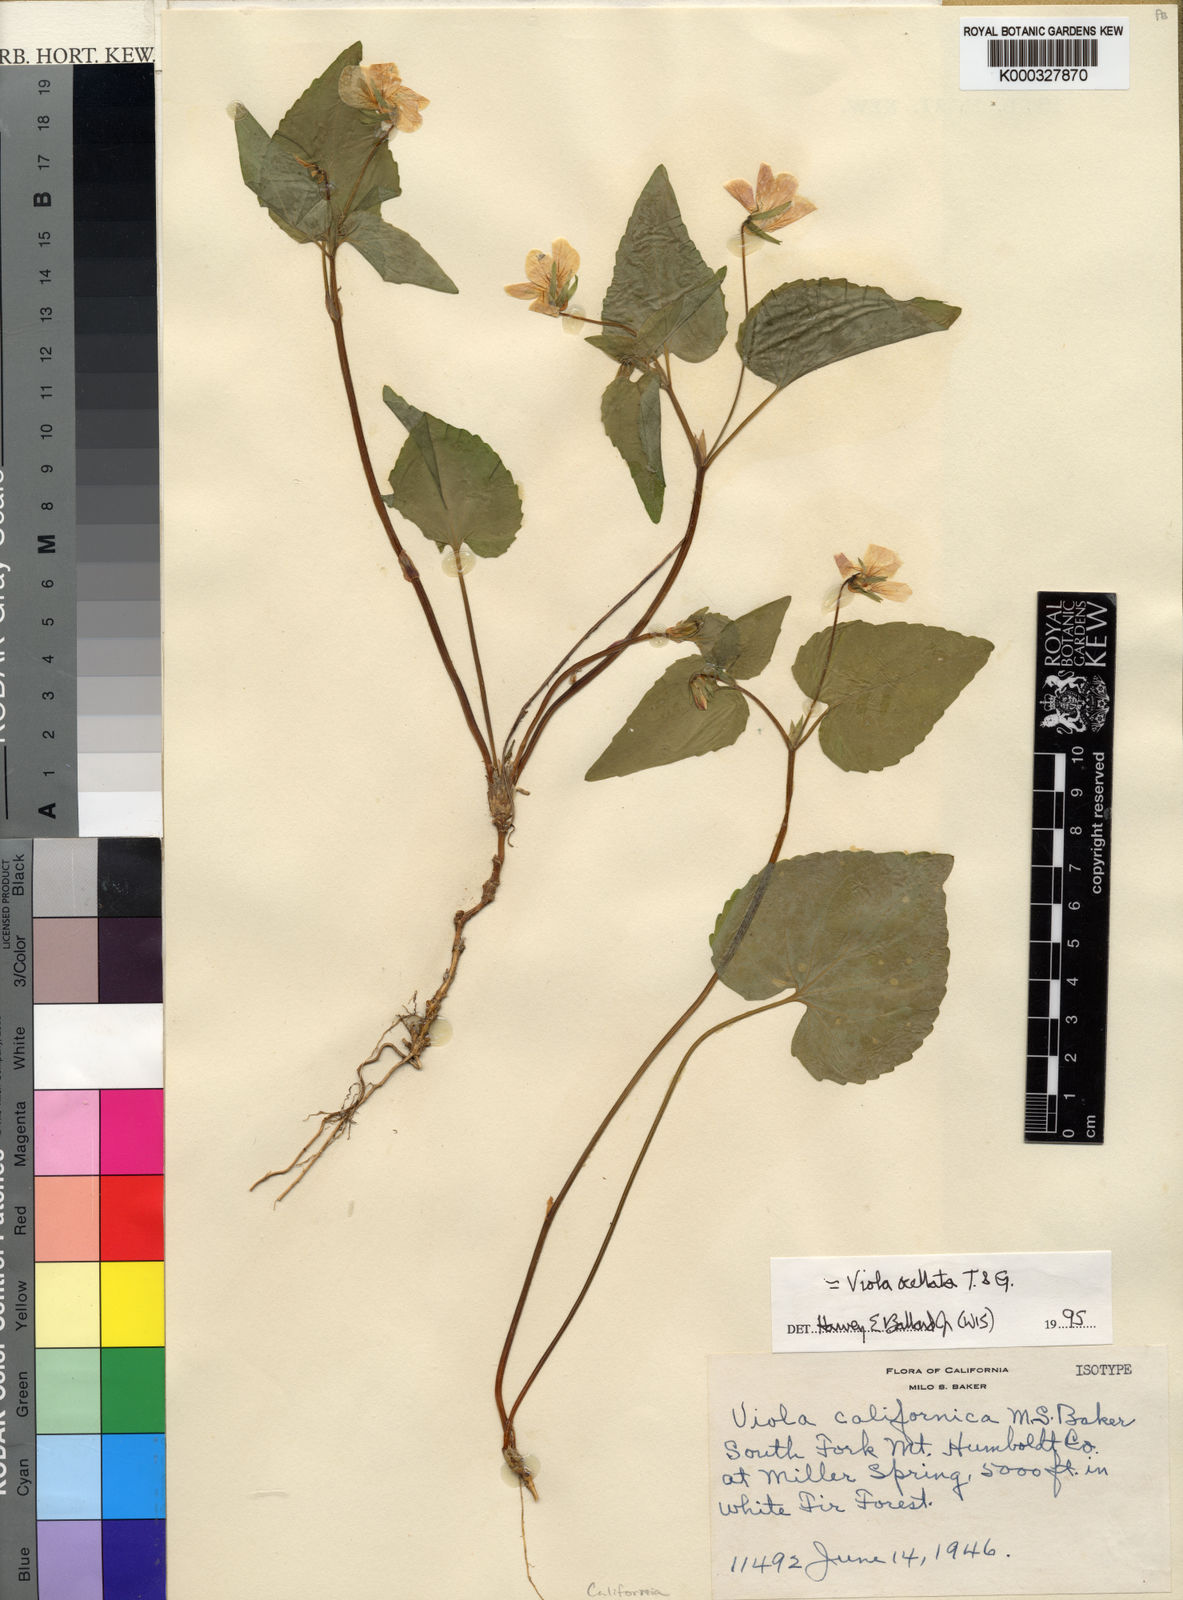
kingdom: Plantae
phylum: Tracheophyta
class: Magnoliopsida
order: Malpighiales
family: Violaceae
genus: Viola
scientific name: Viola californica
